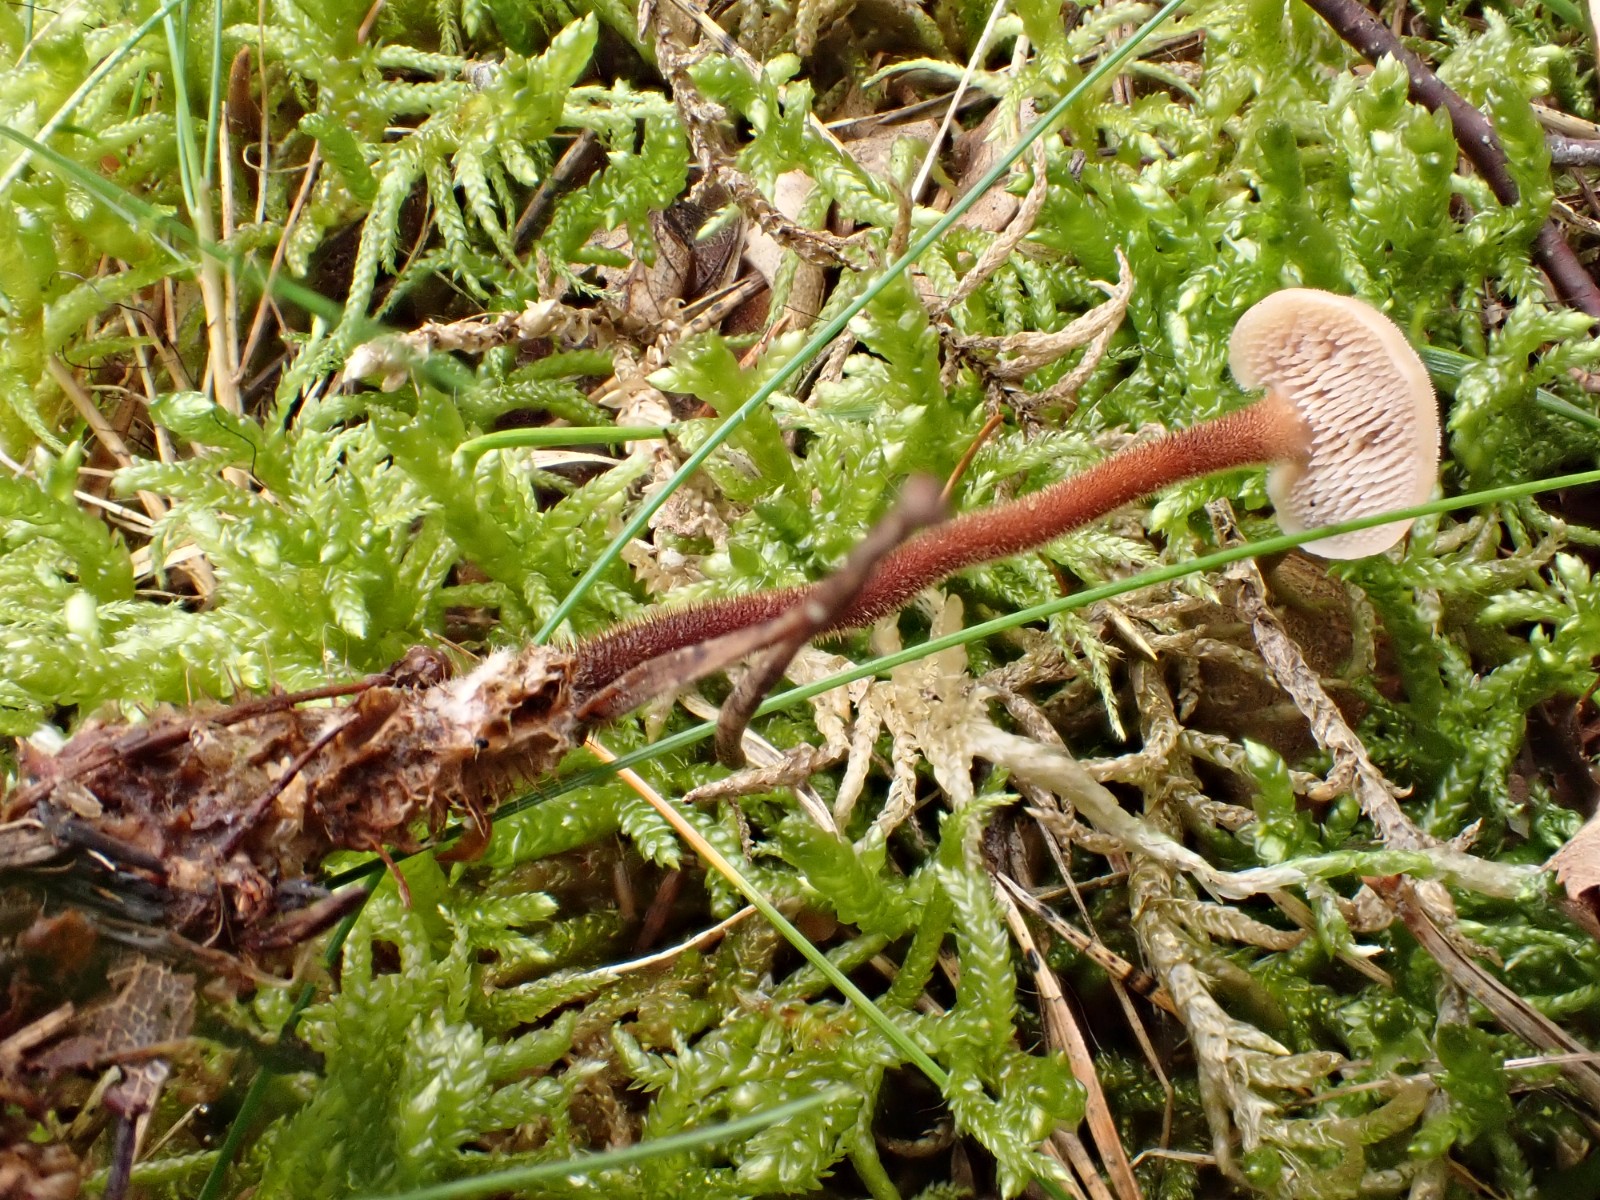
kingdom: Fungi
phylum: Basidiomycota
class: Agaricomycetes
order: Russulales
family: Auriscalpiaceae
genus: Auriscalpium
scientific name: Auriscalpium vulgare
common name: koglepigsvamp
